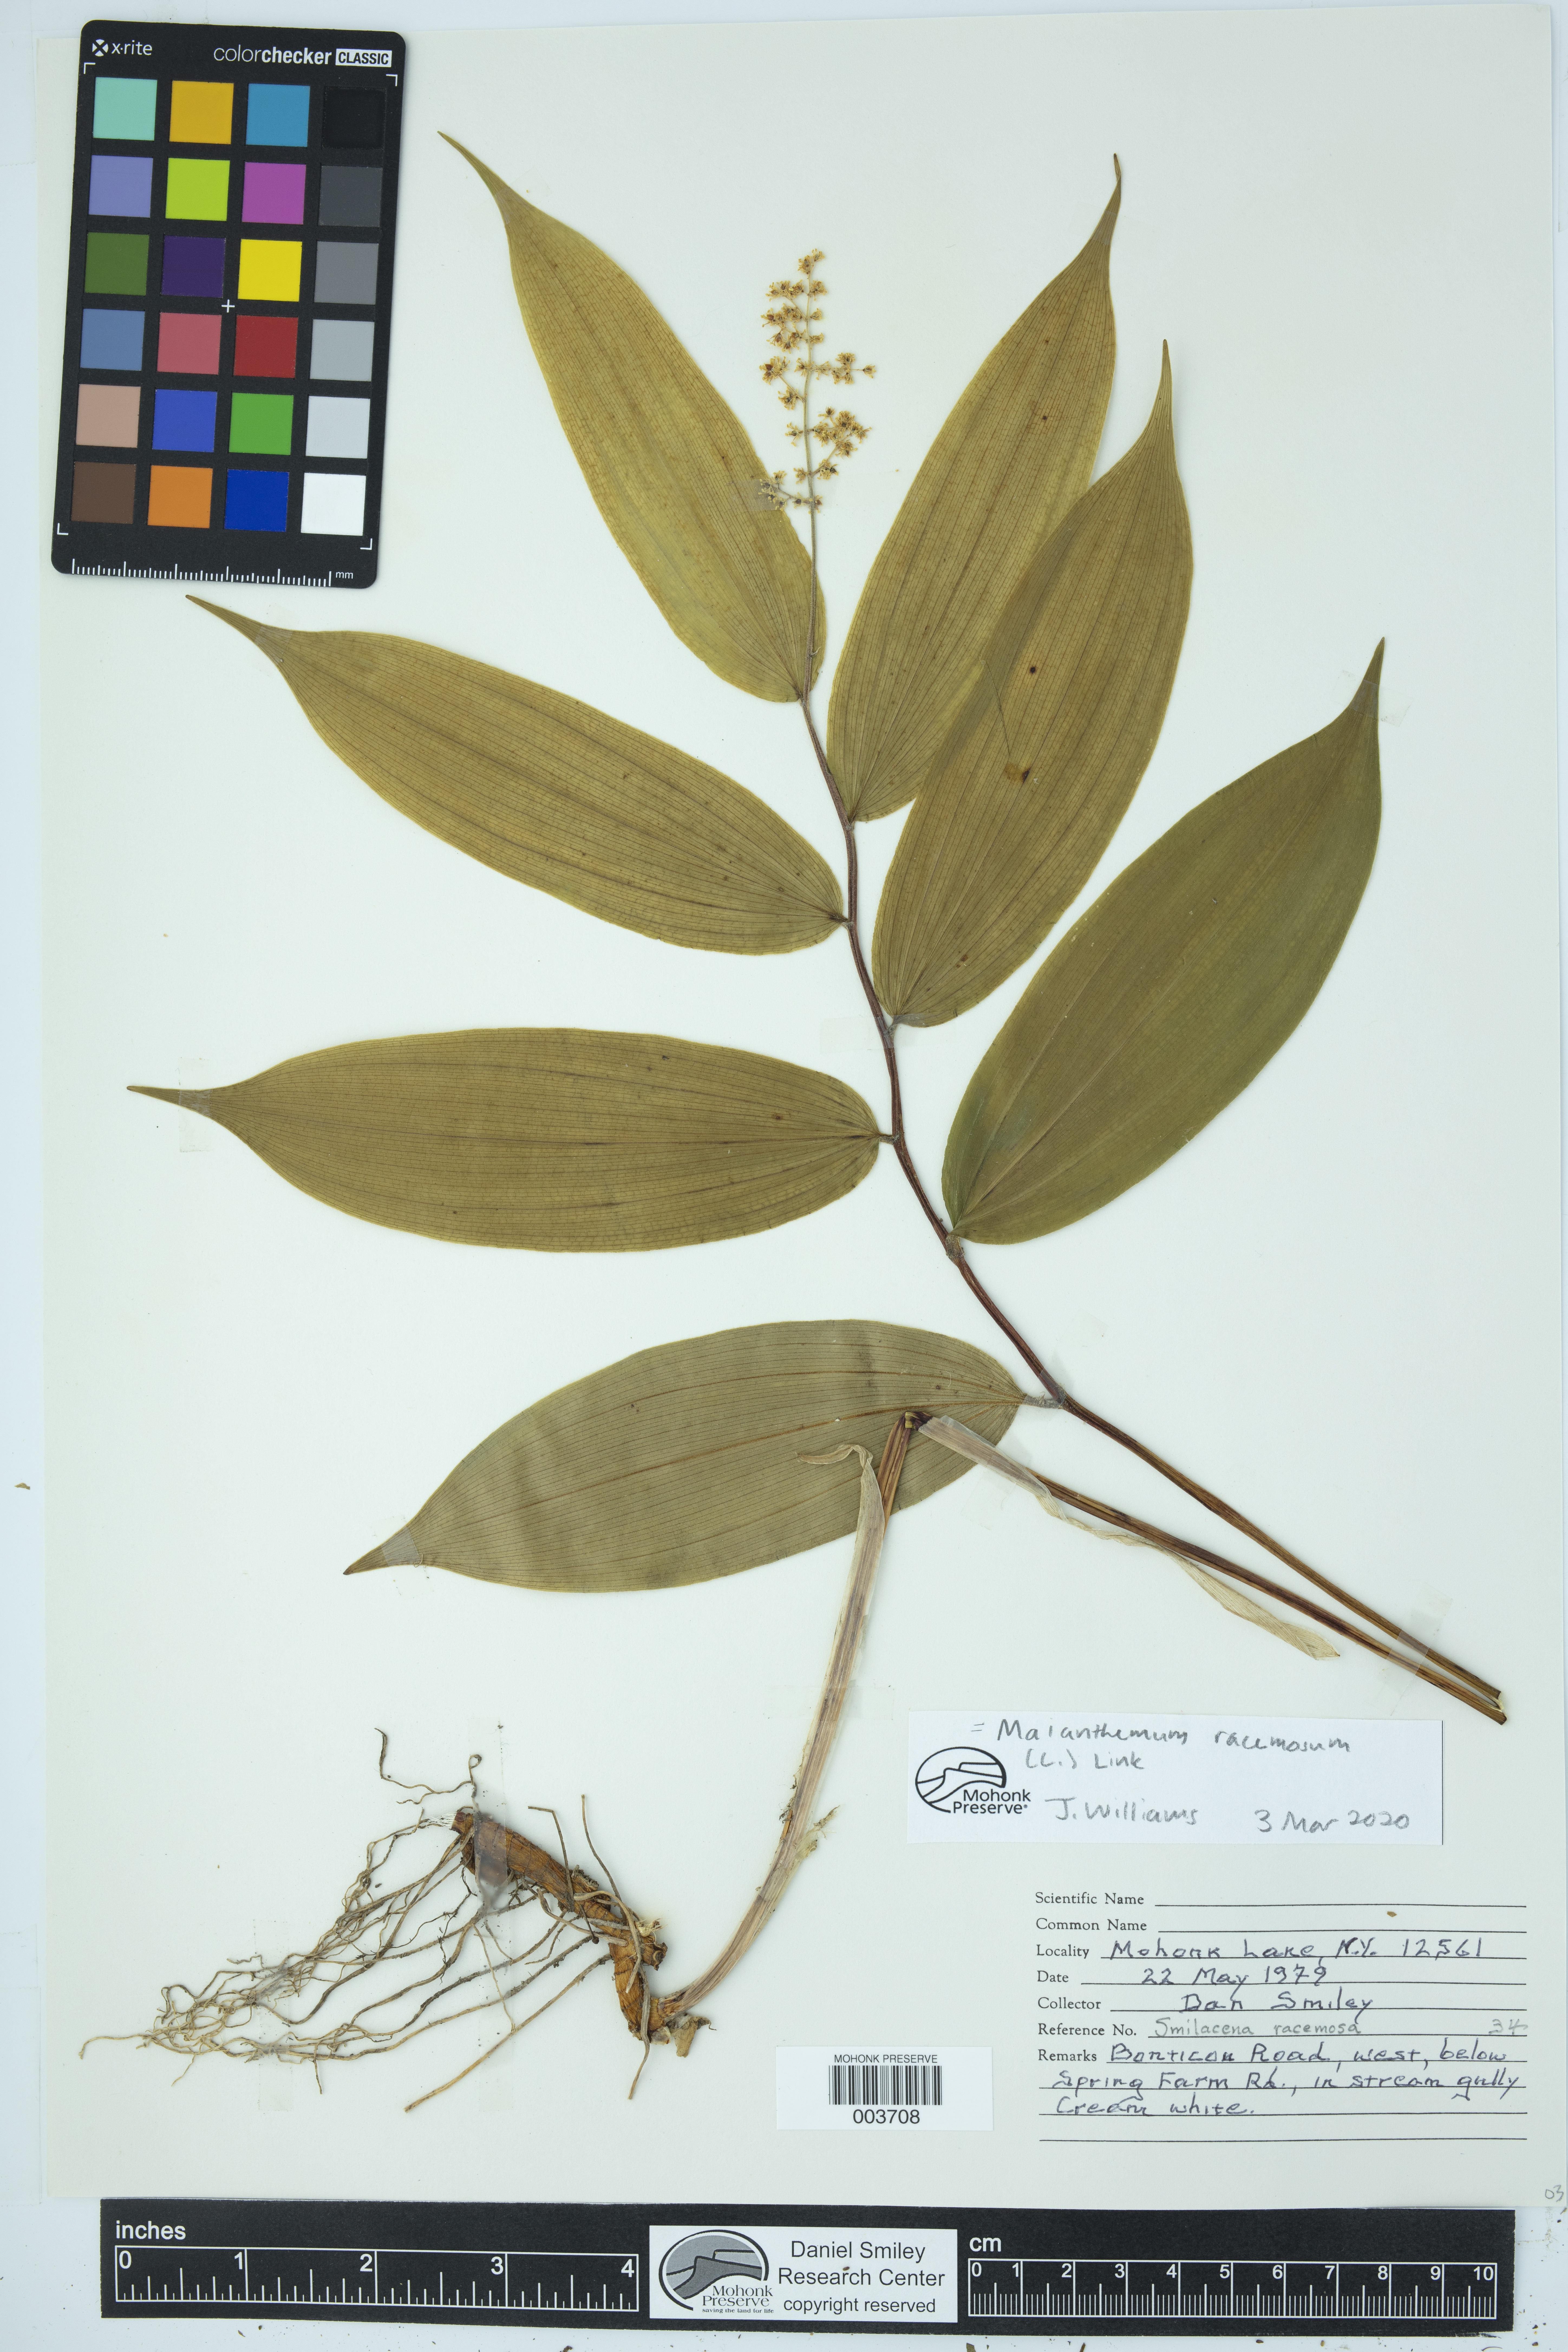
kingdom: Plantae
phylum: Tracheophyta
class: Liliopsida
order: Asparagales
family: Asparagaceae
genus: Maianthemum
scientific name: Maianthemum racemosum
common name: False spikenard
